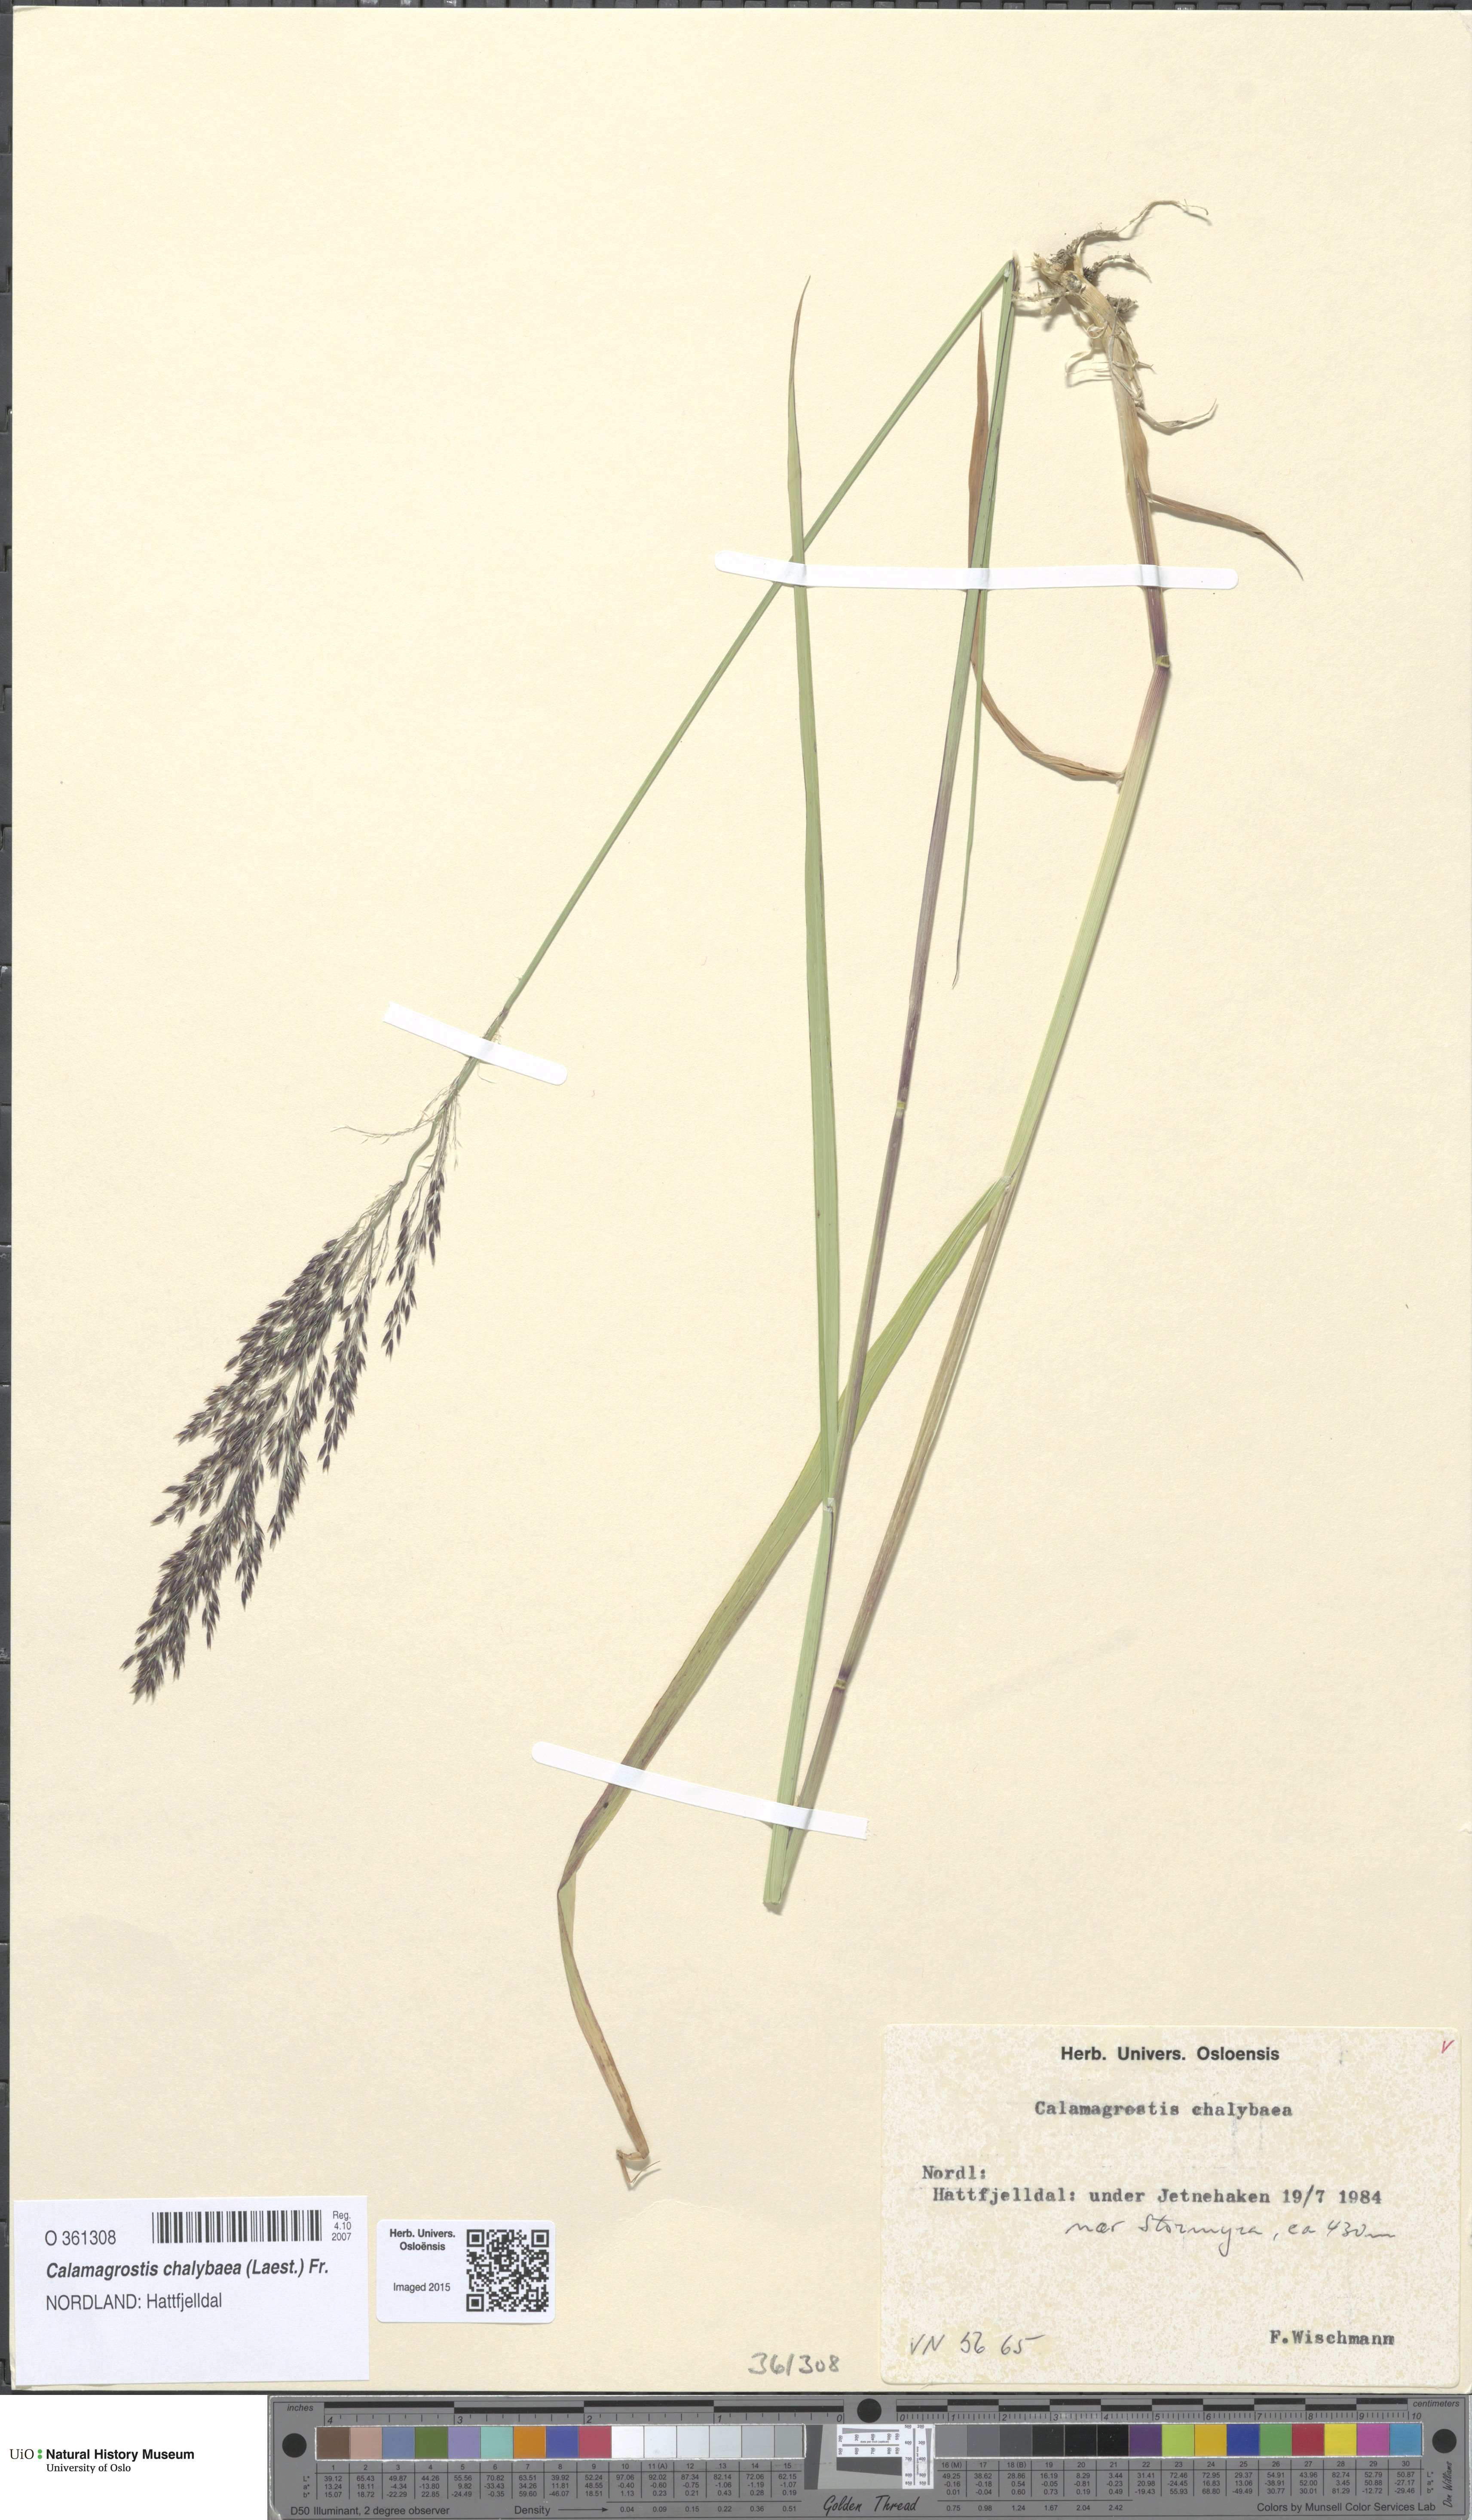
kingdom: Plantae
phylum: Tracheophyta
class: Liliopsida
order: Poales
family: Poaceae
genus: Calamagrostis
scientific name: Calamagrostis chalybaea
